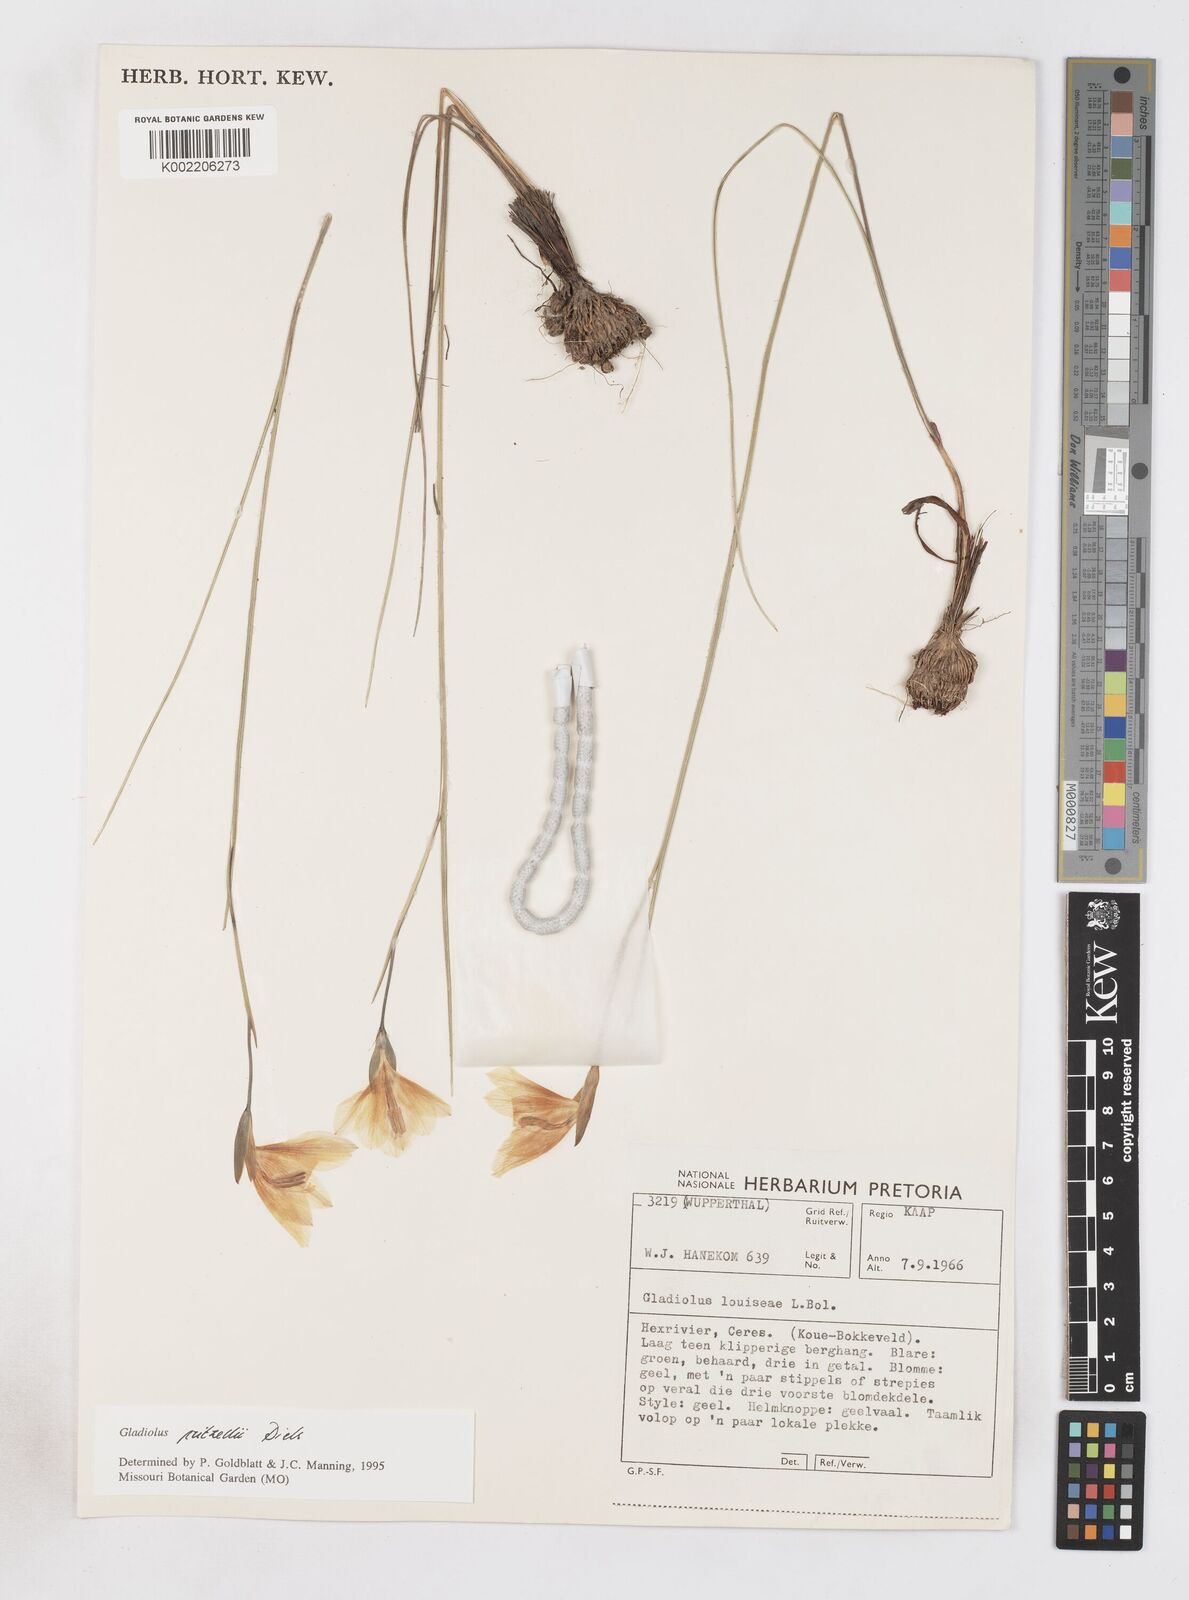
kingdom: Plantae
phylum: Tracheophyta
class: Liliopsida
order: Asparagales
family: Iridaceae
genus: Gladiolus
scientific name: Gladiolus pritzelii
